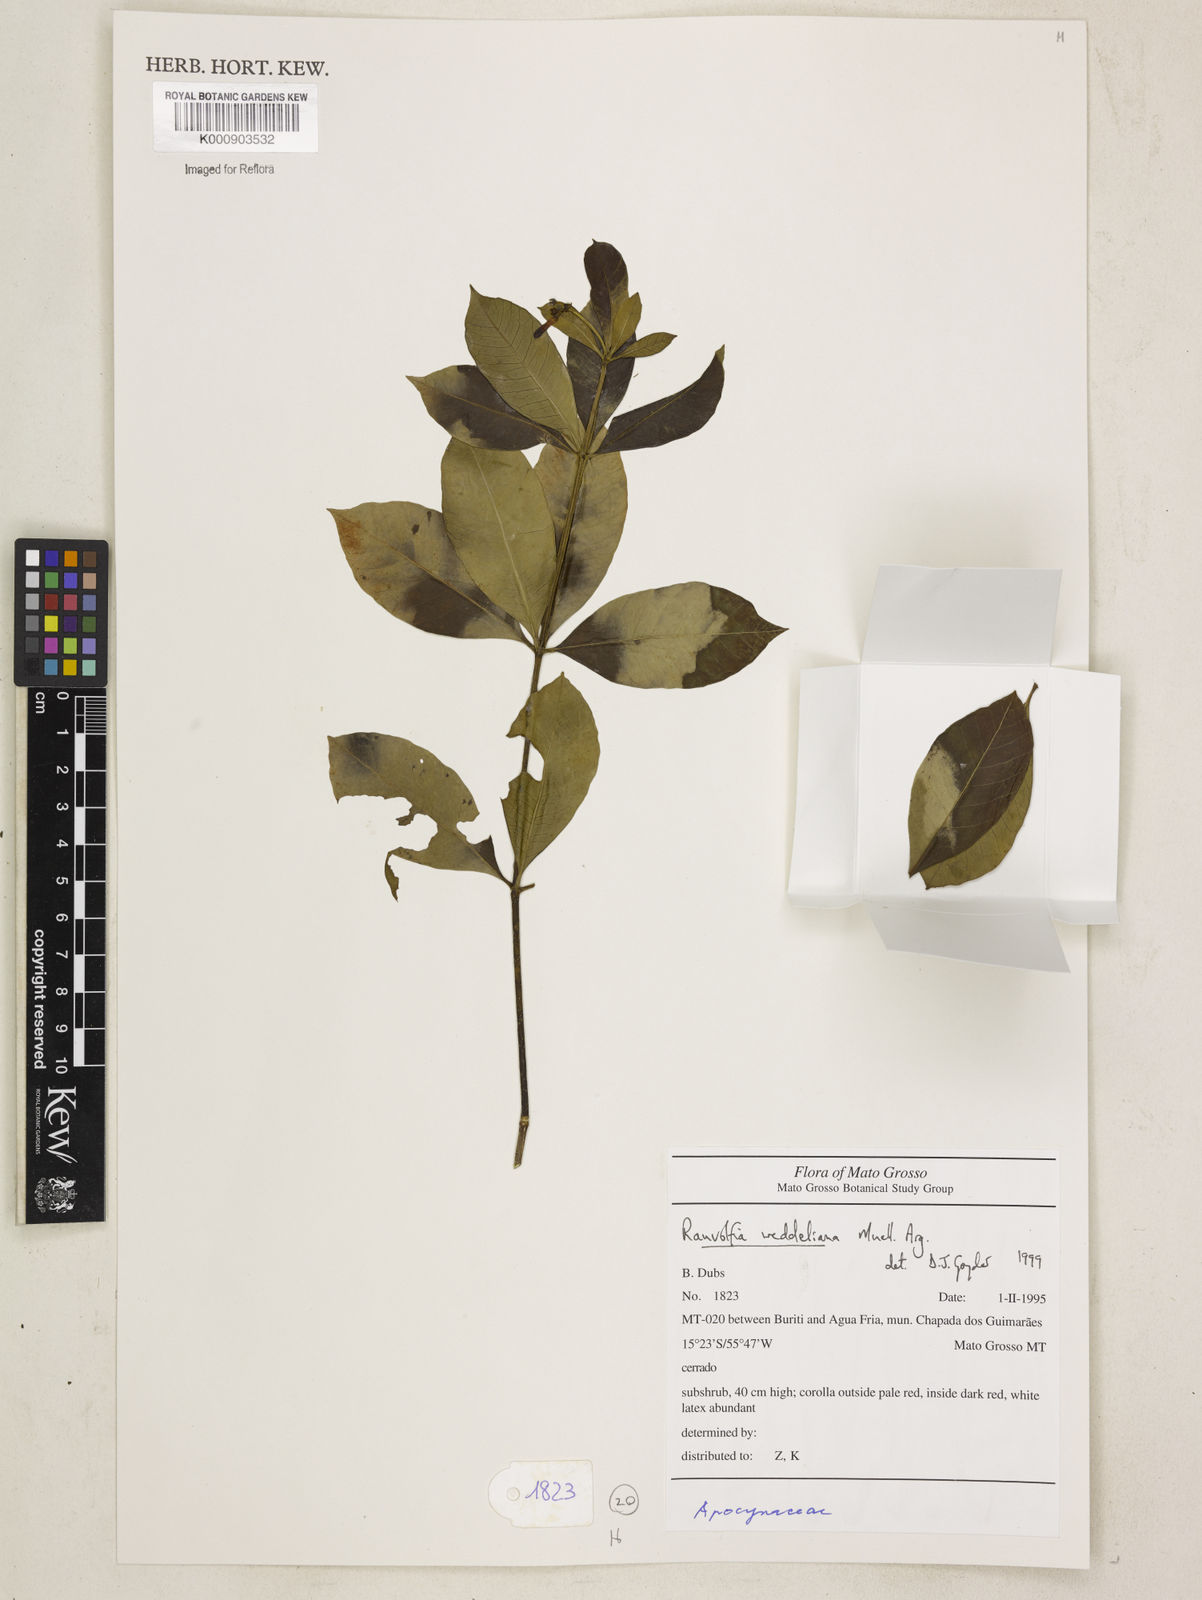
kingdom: Plantae
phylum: Tracheophyta
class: Magnoliopsida
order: Gentianales
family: Apocynaceae
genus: Rauvolfia
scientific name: Rauvolfia
